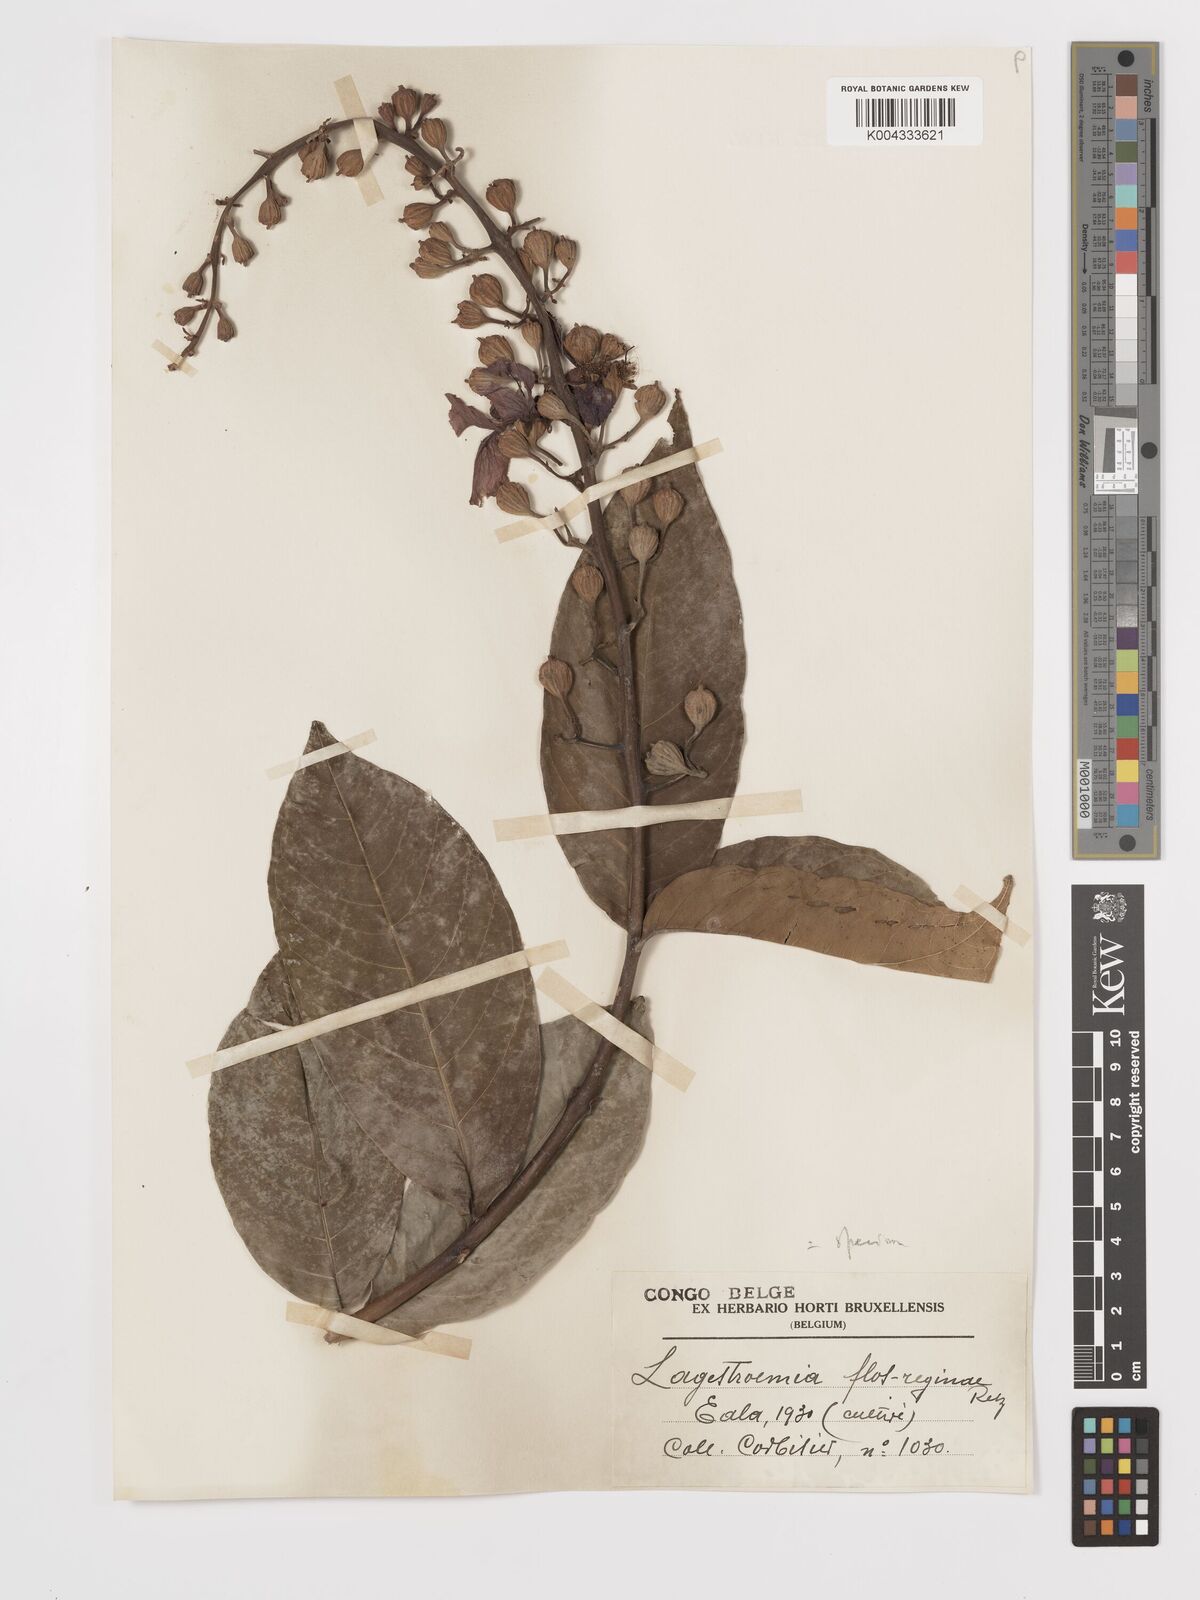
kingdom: Plantae
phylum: Tracheophyta
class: Magnoliopsida
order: Myrtales
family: Lythraceae
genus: Lagerstroemia
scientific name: Lagerstroemia speciosa
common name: Queen's crape-myrtle
